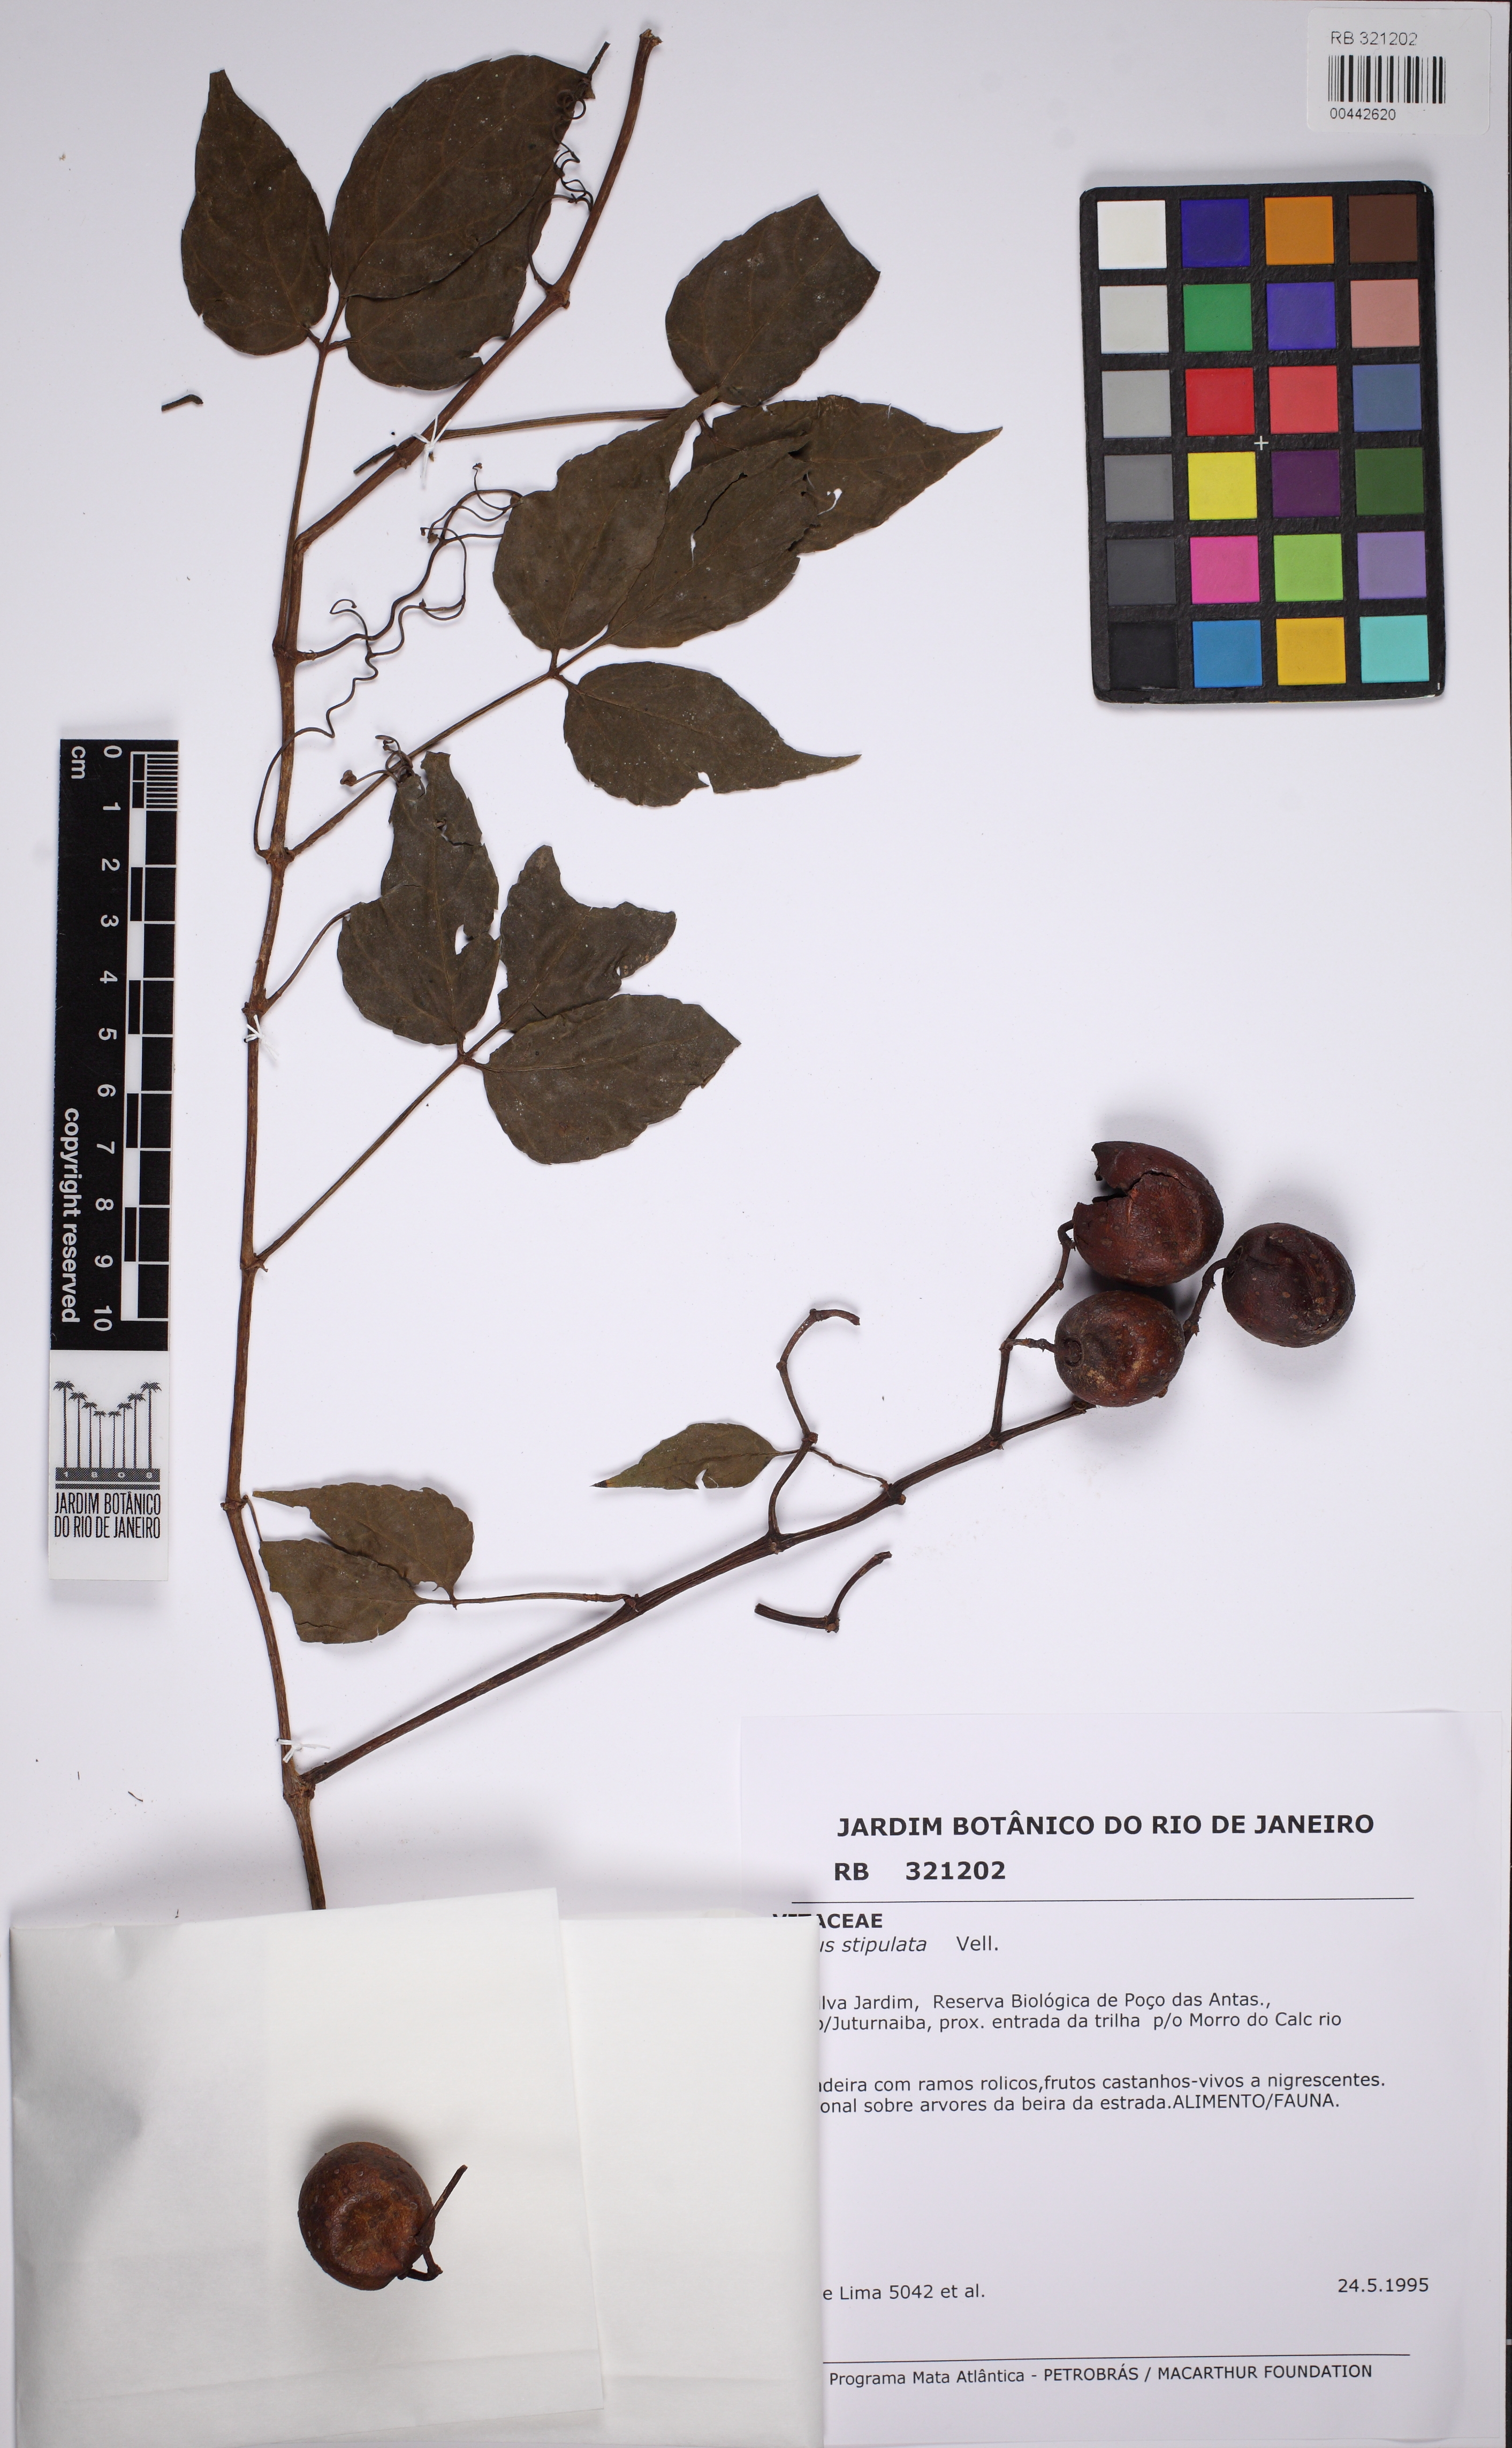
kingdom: Plantae
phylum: Tracheophyta
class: Magnoliopsida
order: Vitales
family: Vitaceae
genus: Cissus
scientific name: Cissus stipulata
